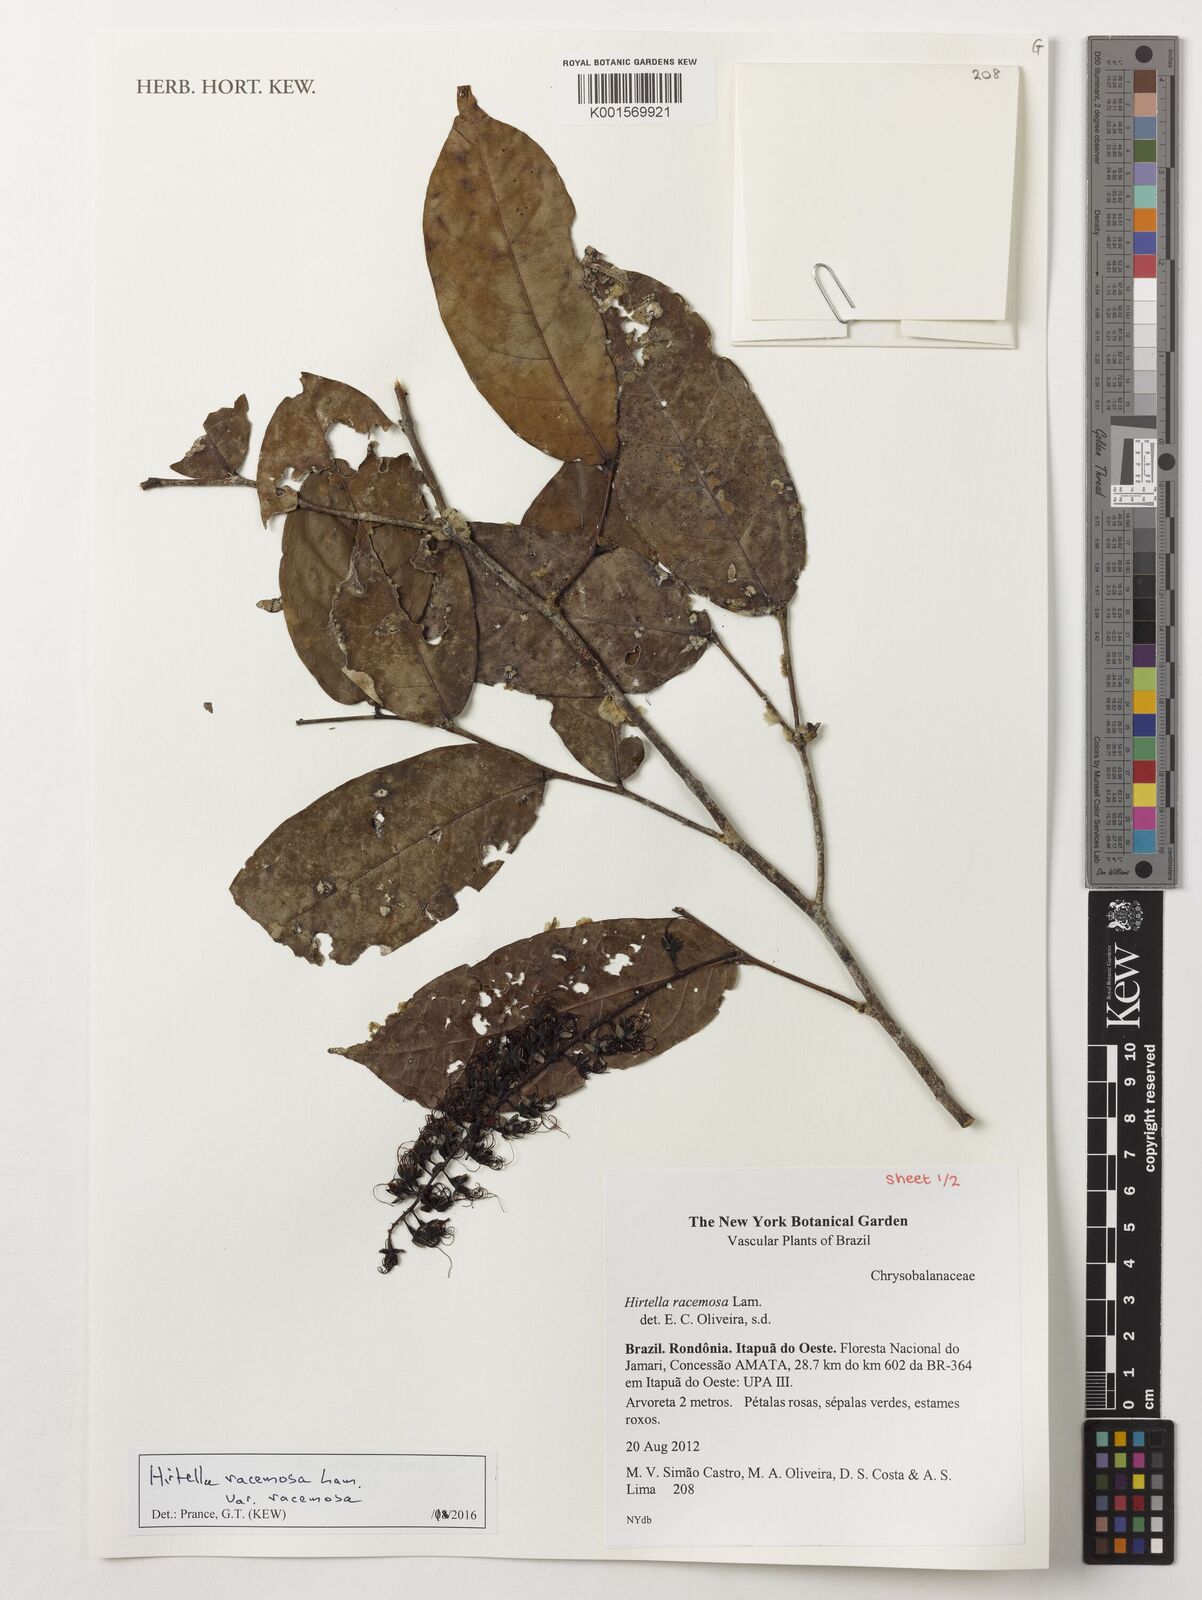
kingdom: Plantae
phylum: Tracheophyta
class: Magnoliopsida
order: Malpighiales
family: Chrysobalanaceae
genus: Hirtella
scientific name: Hirtella racemosa
